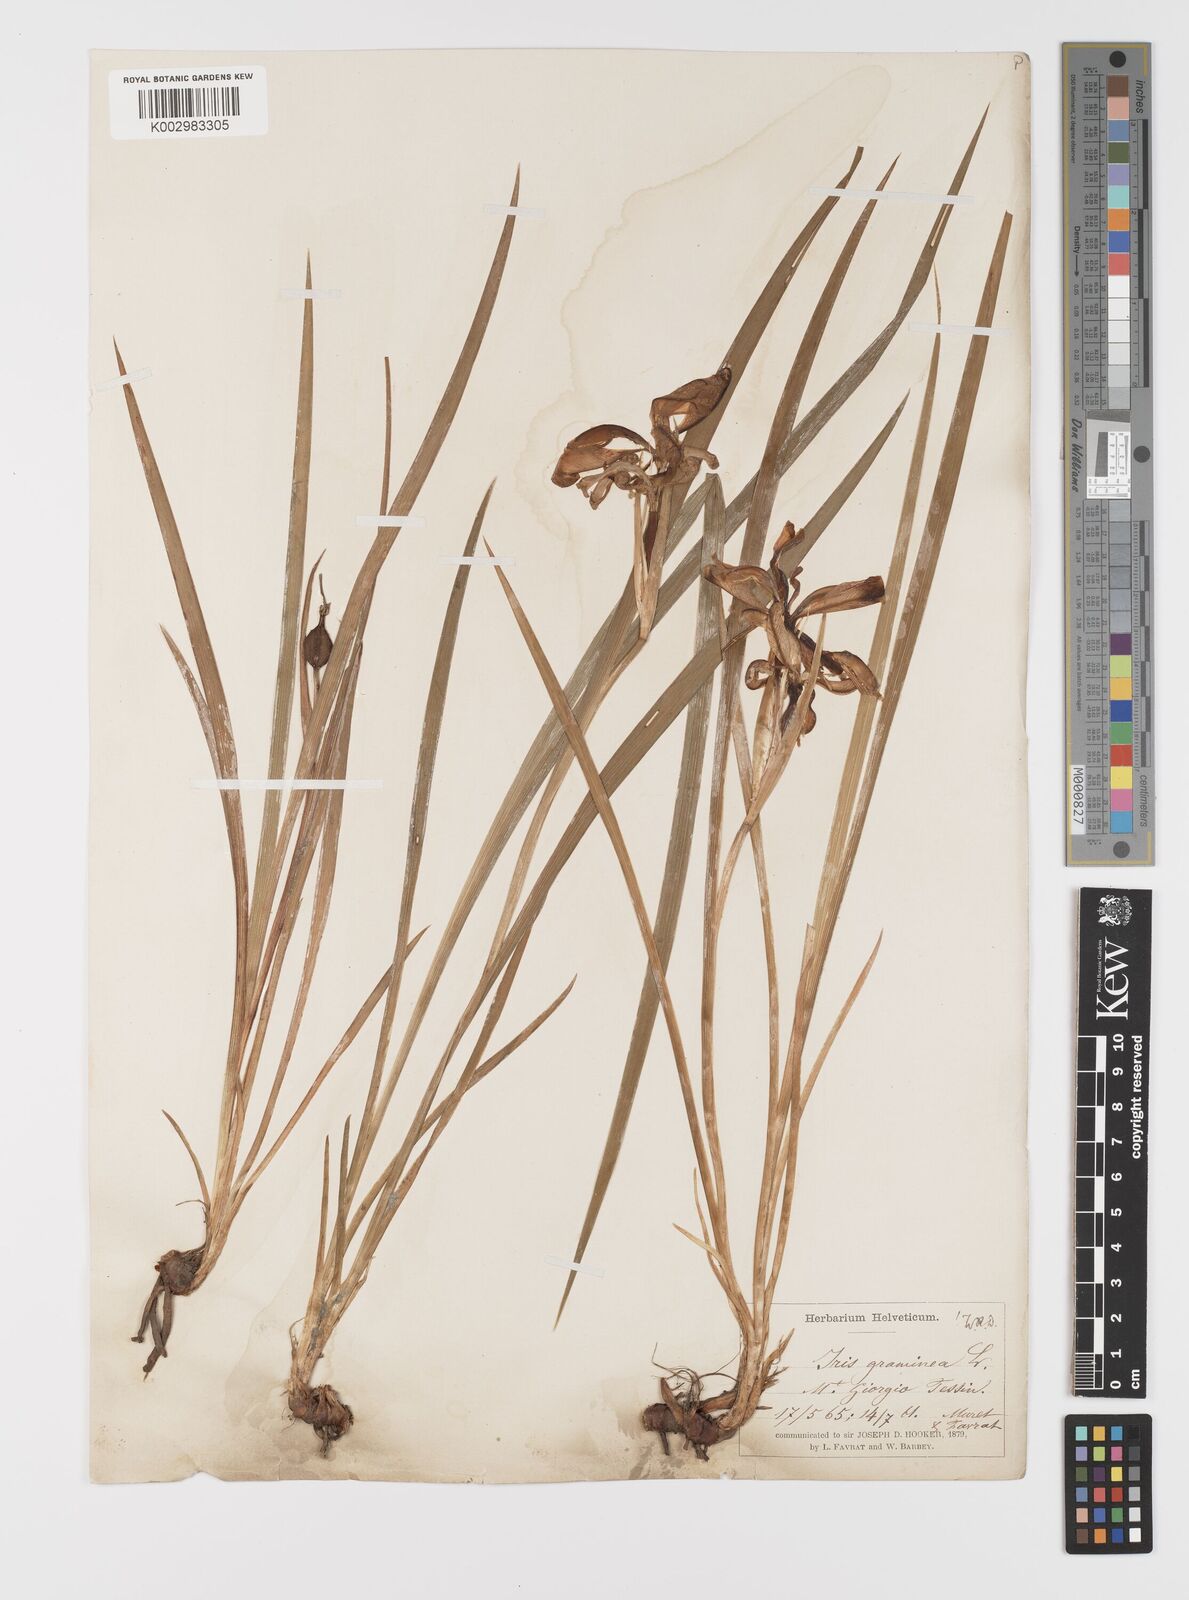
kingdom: Plantae
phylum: Tracheophyta
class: Liliopsida
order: Asparagales
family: Iridaceae
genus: Iris
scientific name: Iris graminea
